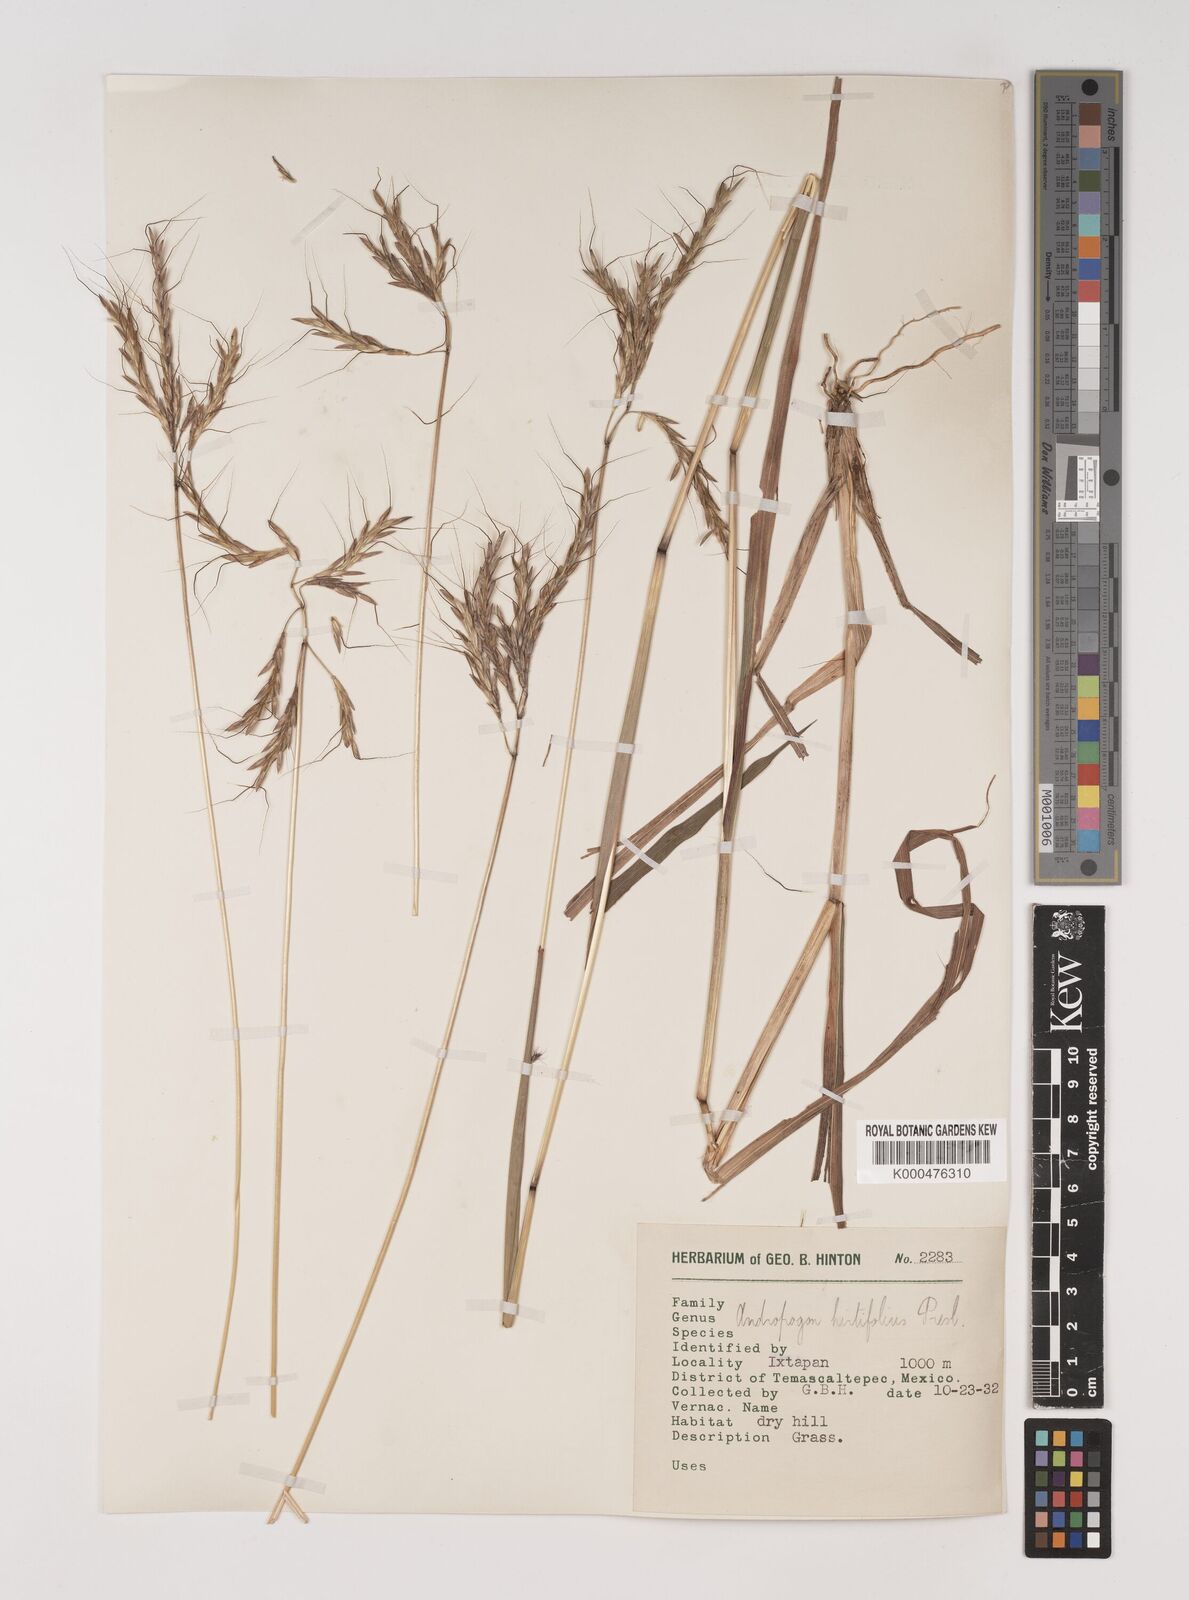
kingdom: Plantae
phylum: Tracheophyta
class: Liliopsida
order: Poales
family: Poaceae
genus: Bothriochloa
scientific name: Bothriochloa hirtifolia
